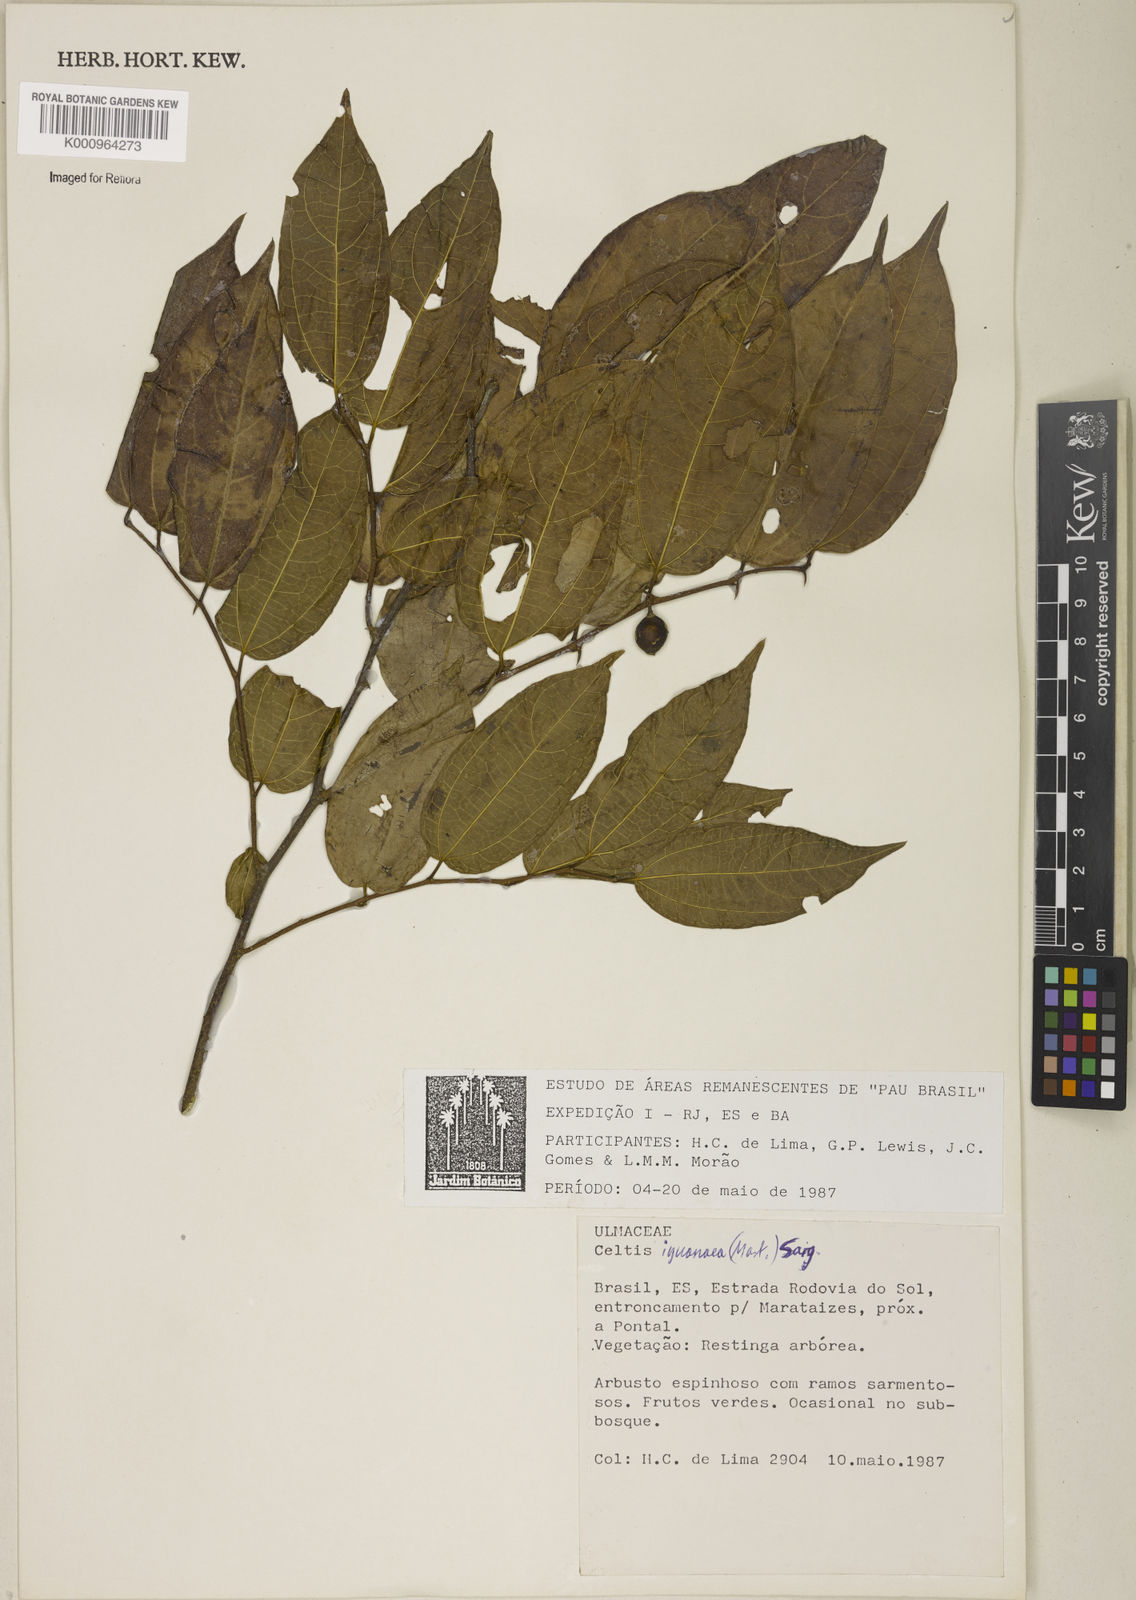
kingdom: Plantae
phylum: Tracheophyta
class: Magnoliopsida
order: Rosales
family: Cannabaceae
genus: Celtis
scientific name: Celtis iguanaea
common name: Iguana hackberry
